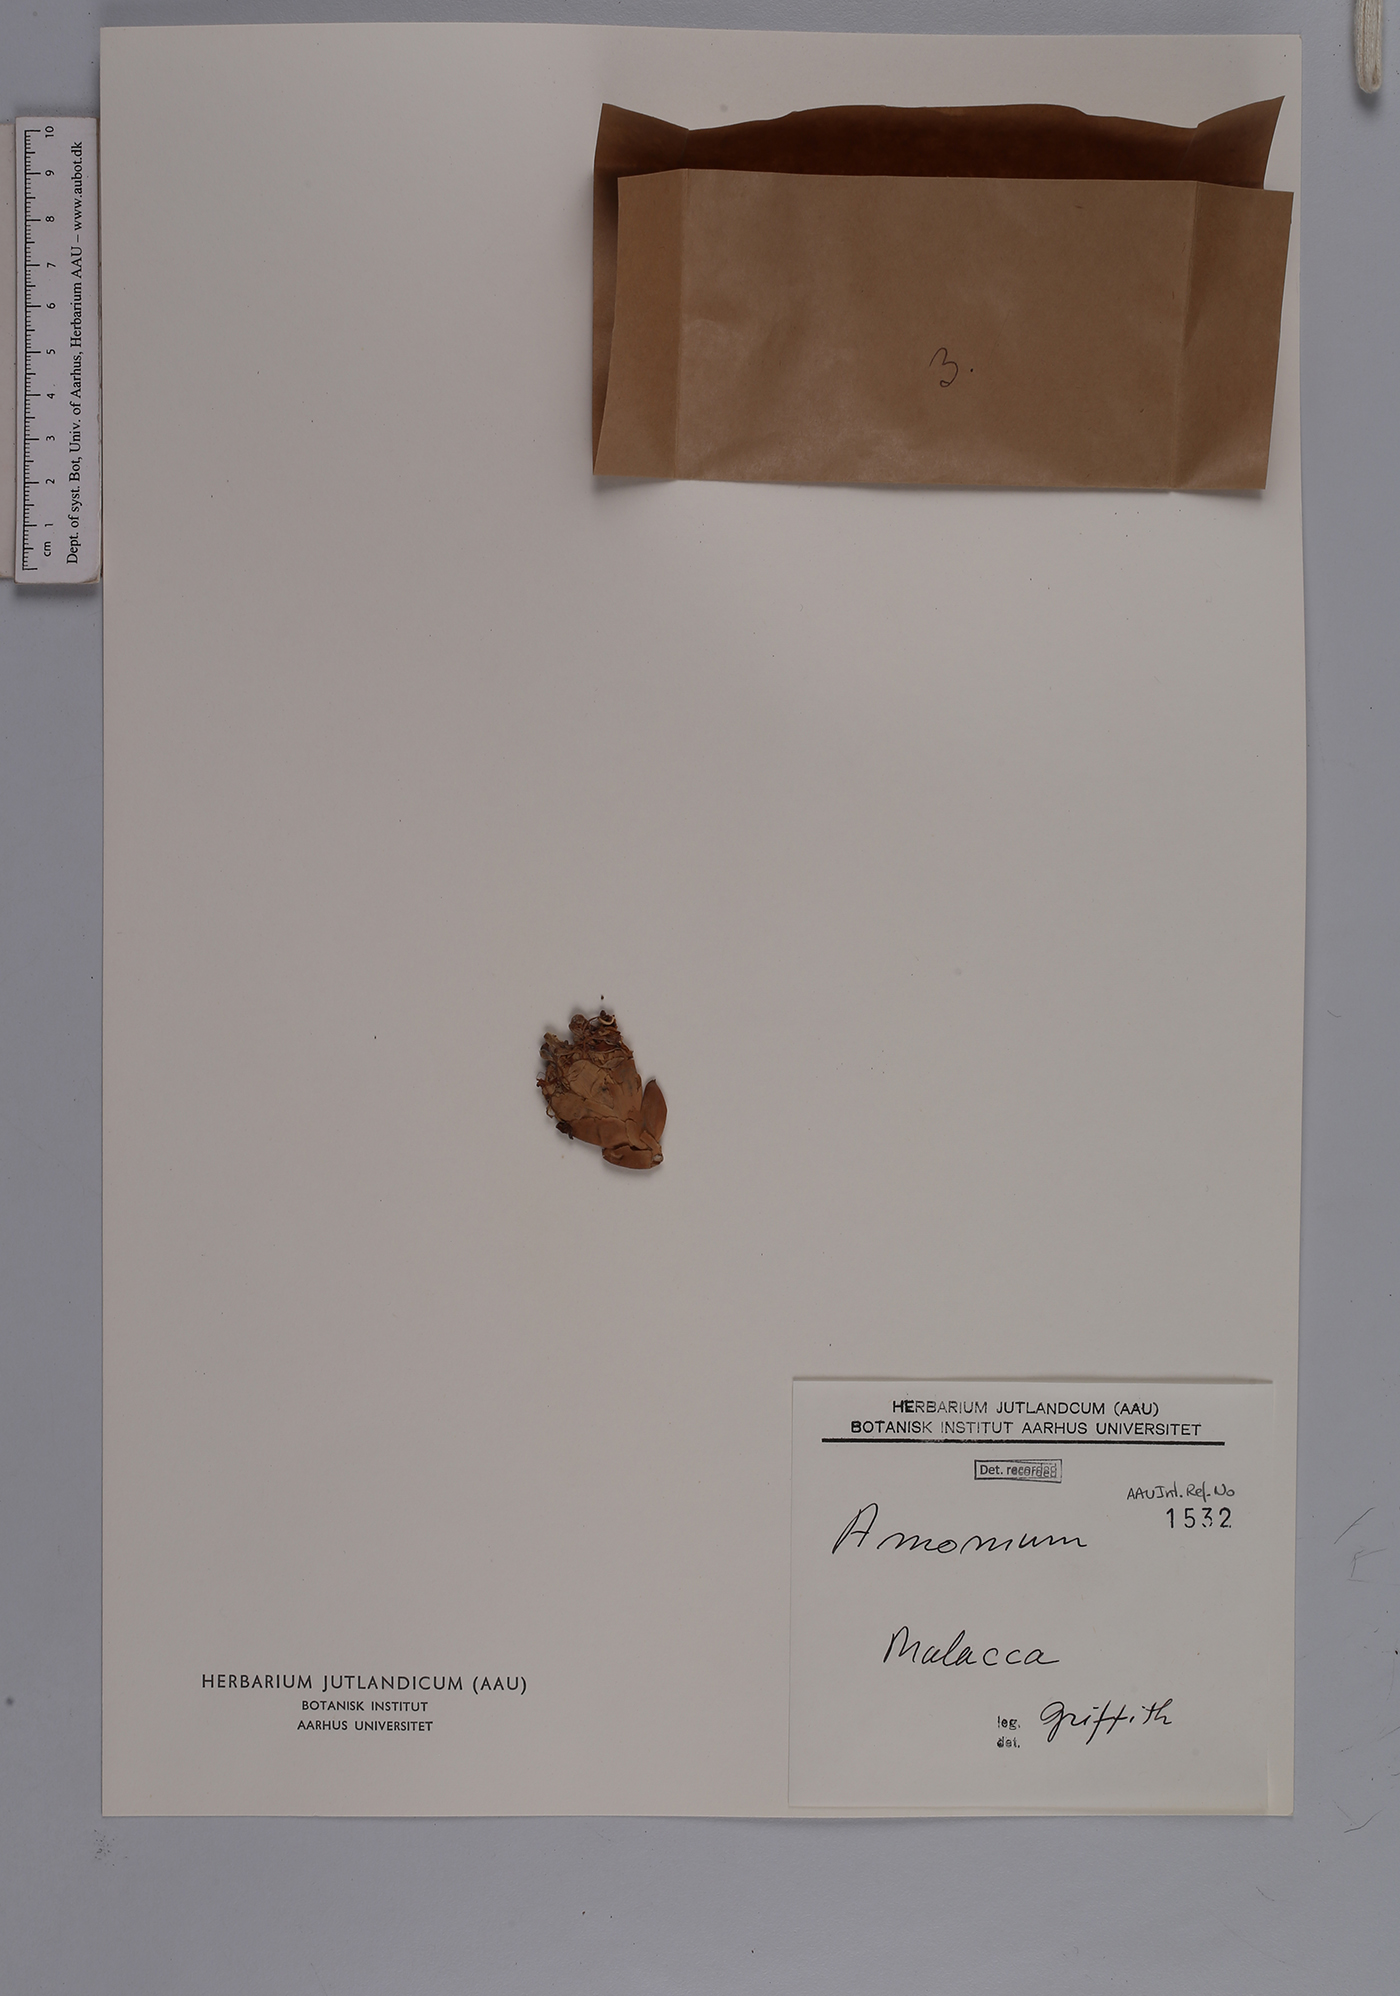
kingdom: Plantae
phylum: Tracheophyta
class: Liliopsida
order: Zingiberales
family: Zingiberaceae
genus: Amomum
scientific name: Amomum
